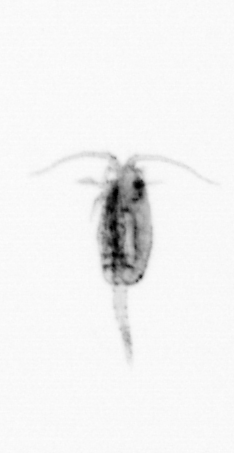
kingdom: Animalia
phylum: Arthropoda
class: Copepoda
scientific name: Copepoda
